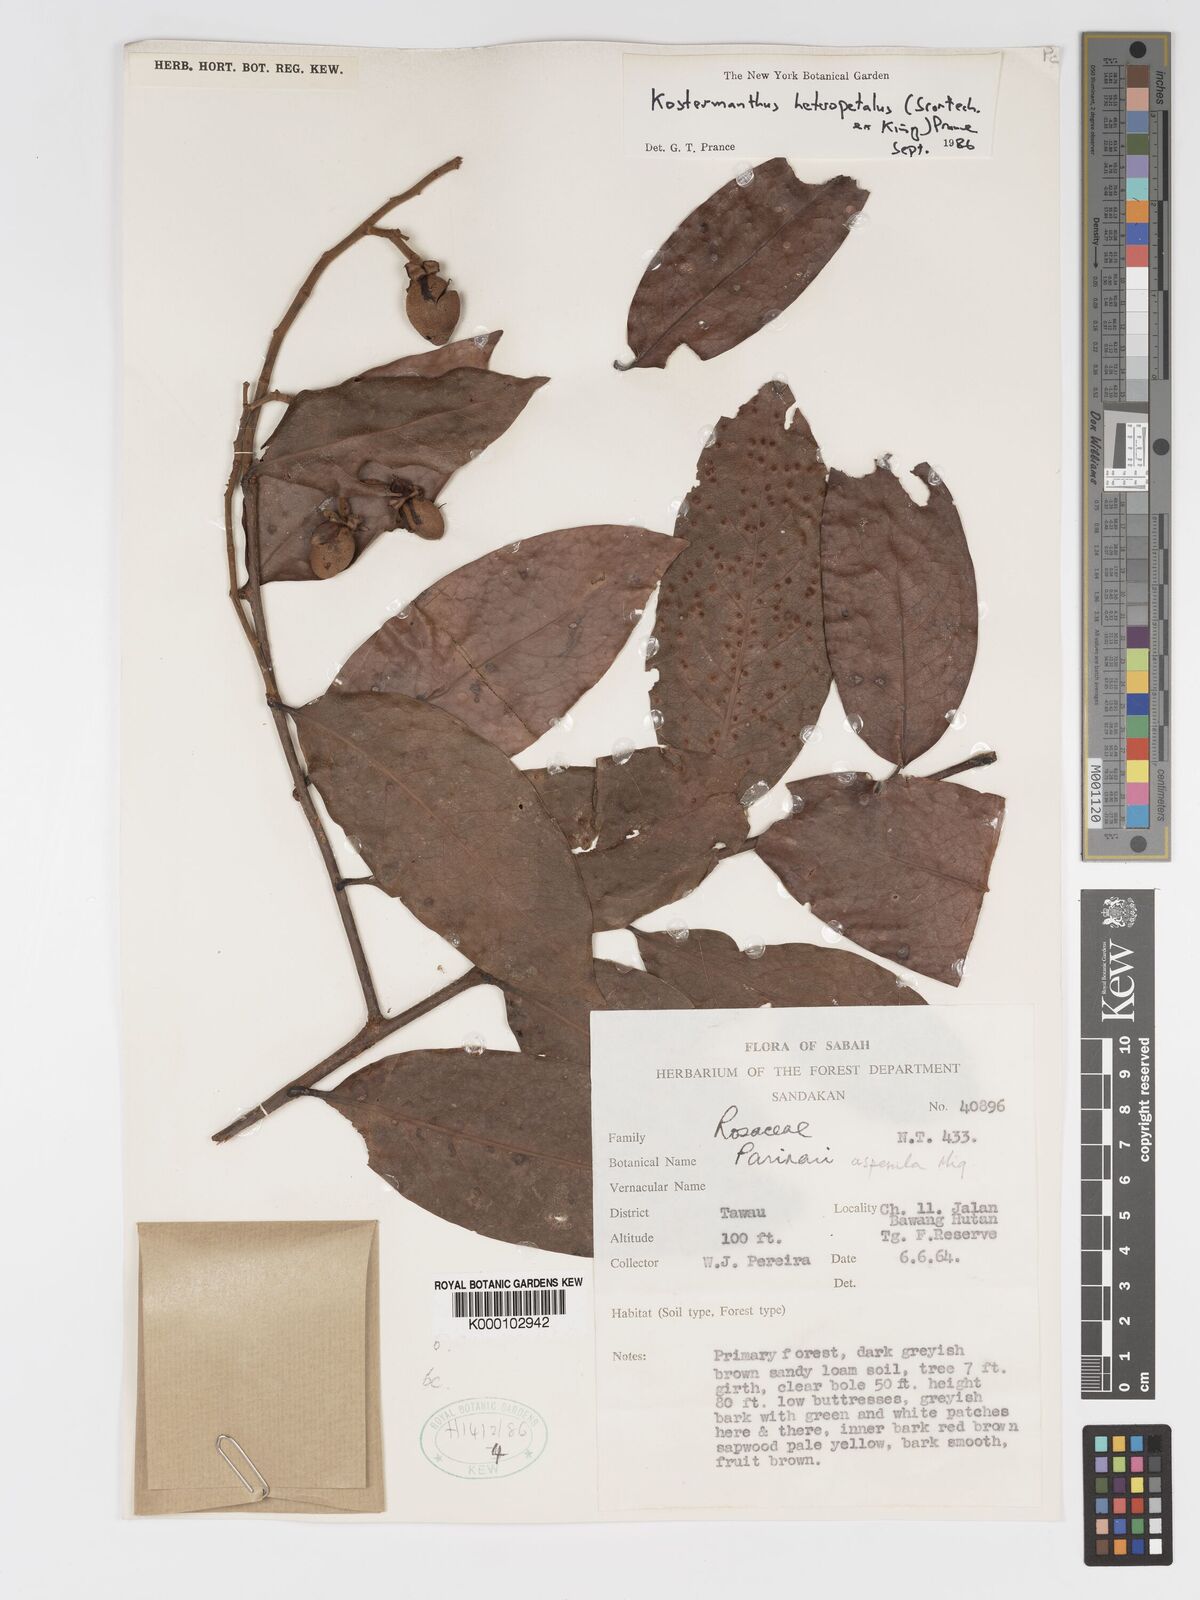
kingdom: Plantae
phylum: Tracheophyta
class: Magnoliopsida
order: Malpighiales
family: Chrysobalanaceae
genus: Kostermanthus
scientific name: Kostermanthus heteropetalus
